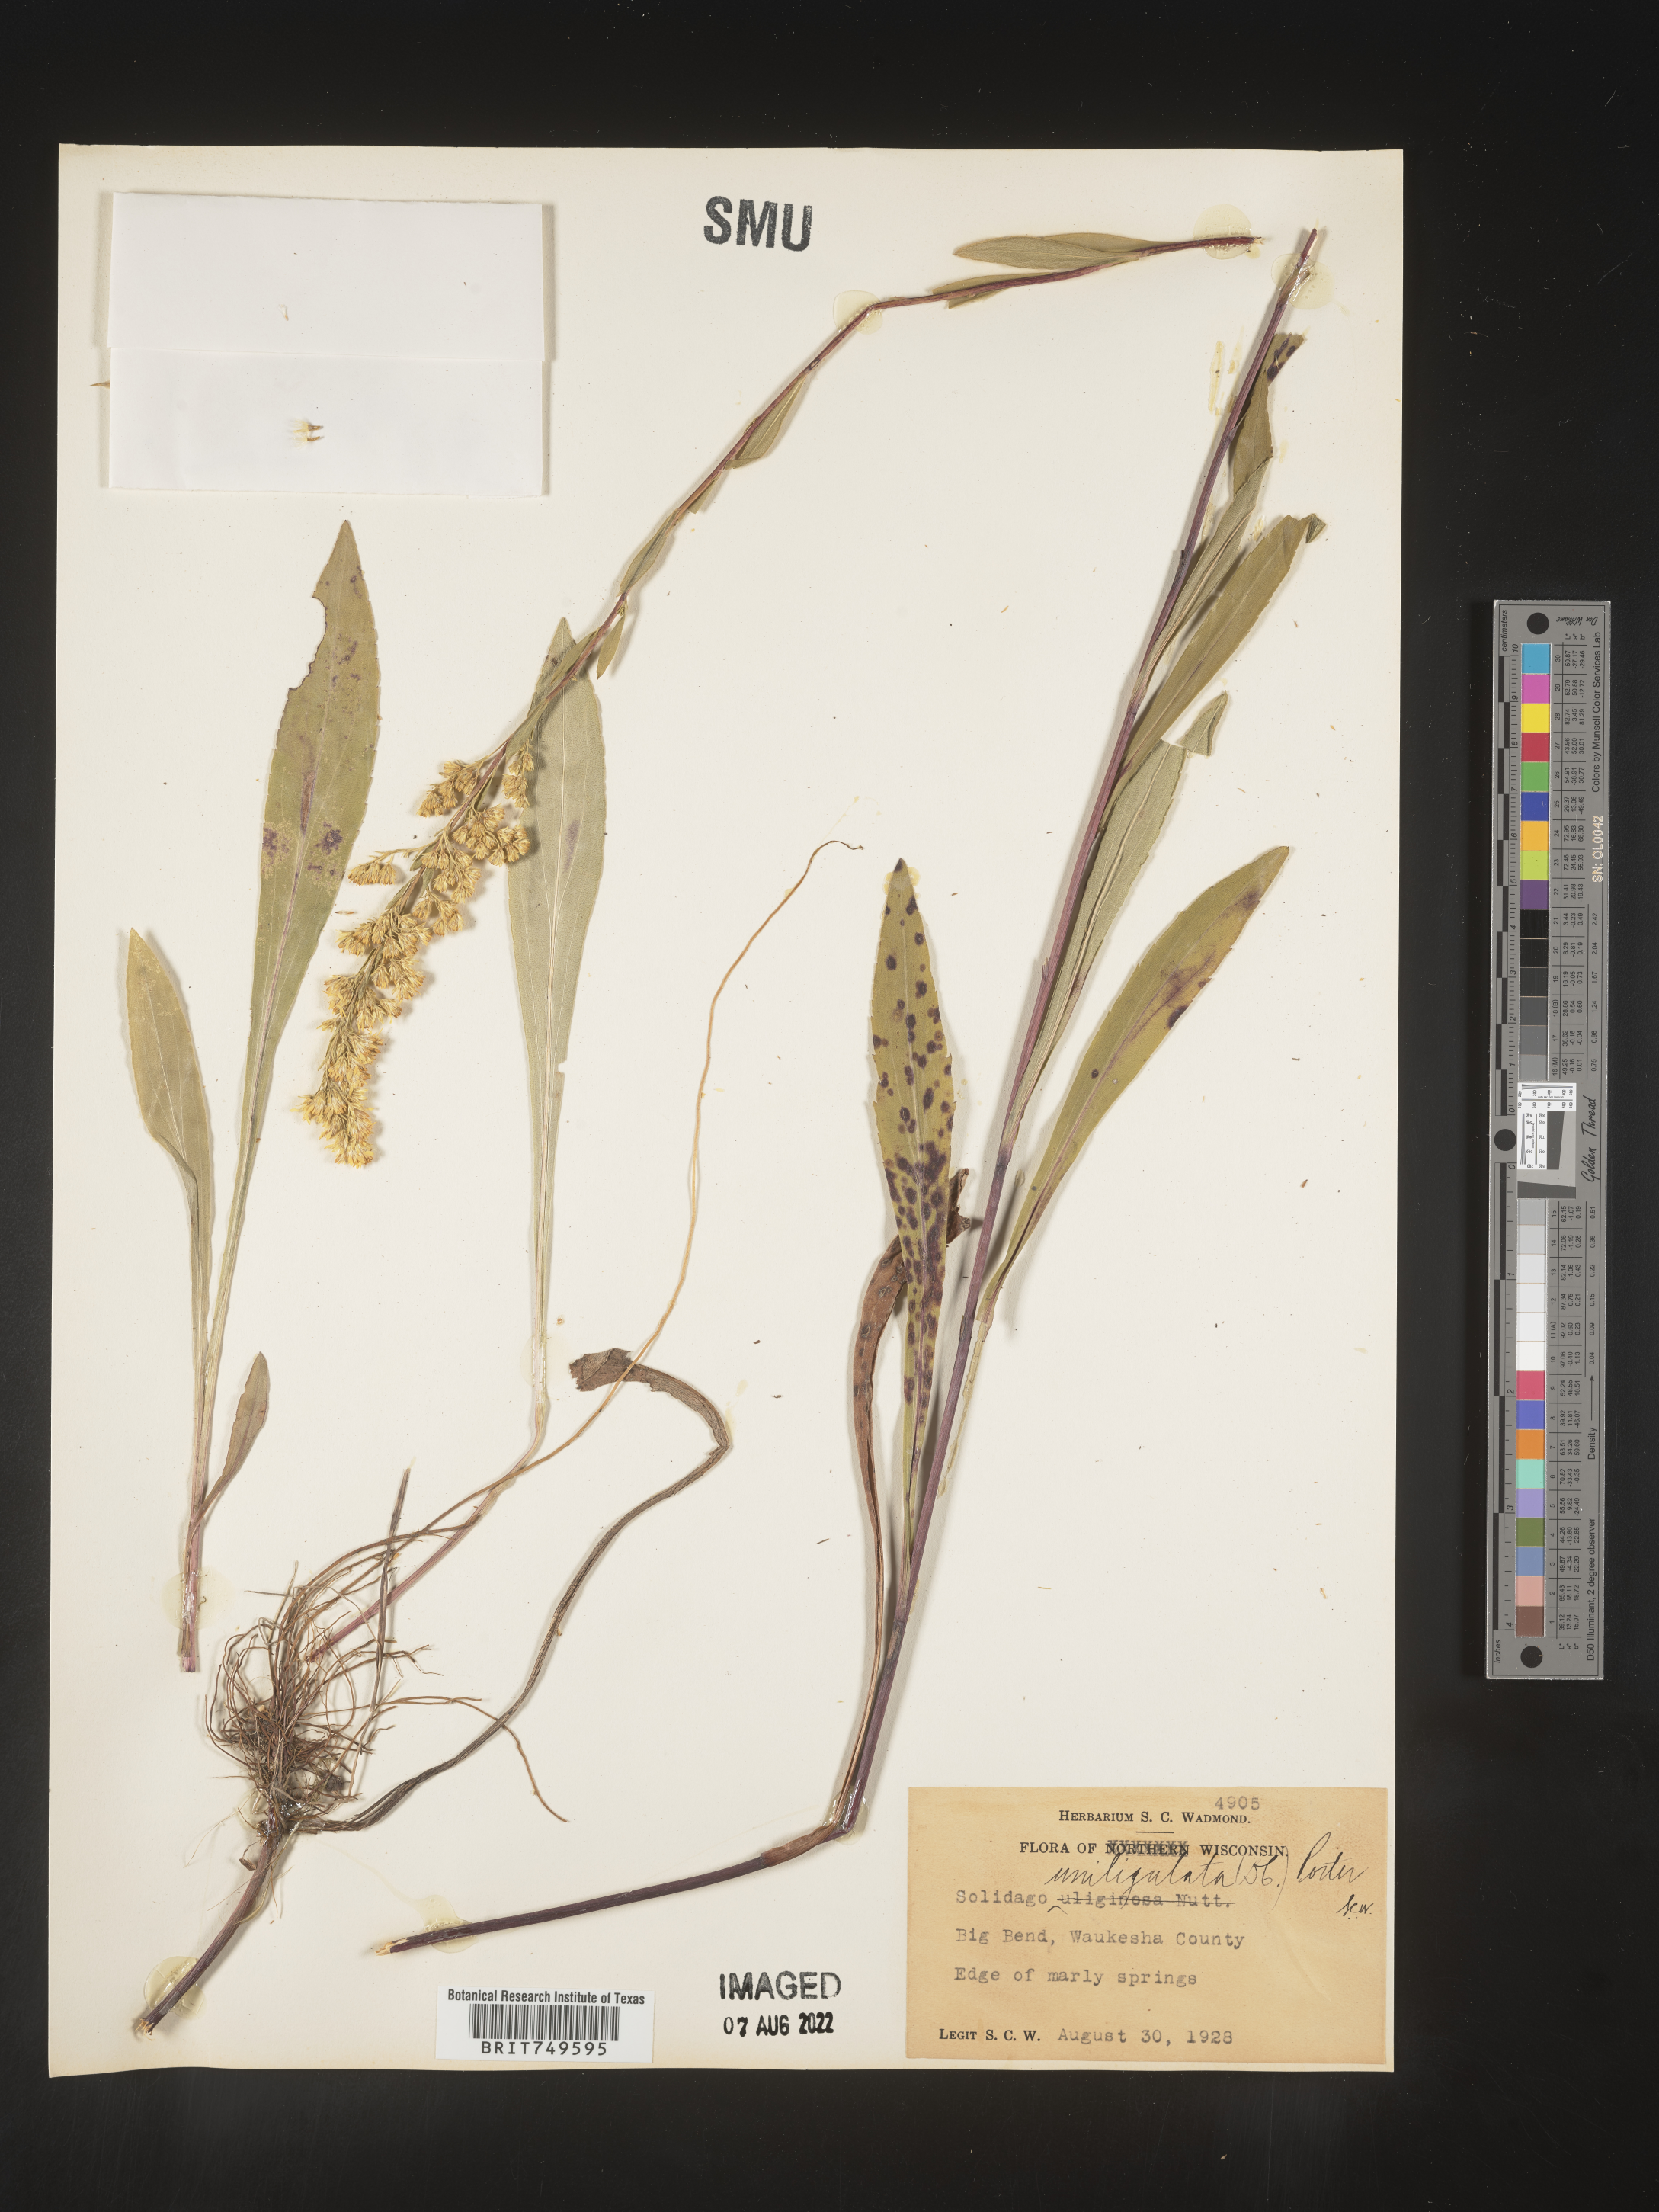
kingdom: Plantae
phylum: Tracheophyta
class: Magnoliopsida
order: Asterales
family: Asteraceae
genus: Solidago
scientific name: Solidago uliginosa
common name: Bog goldenrod
